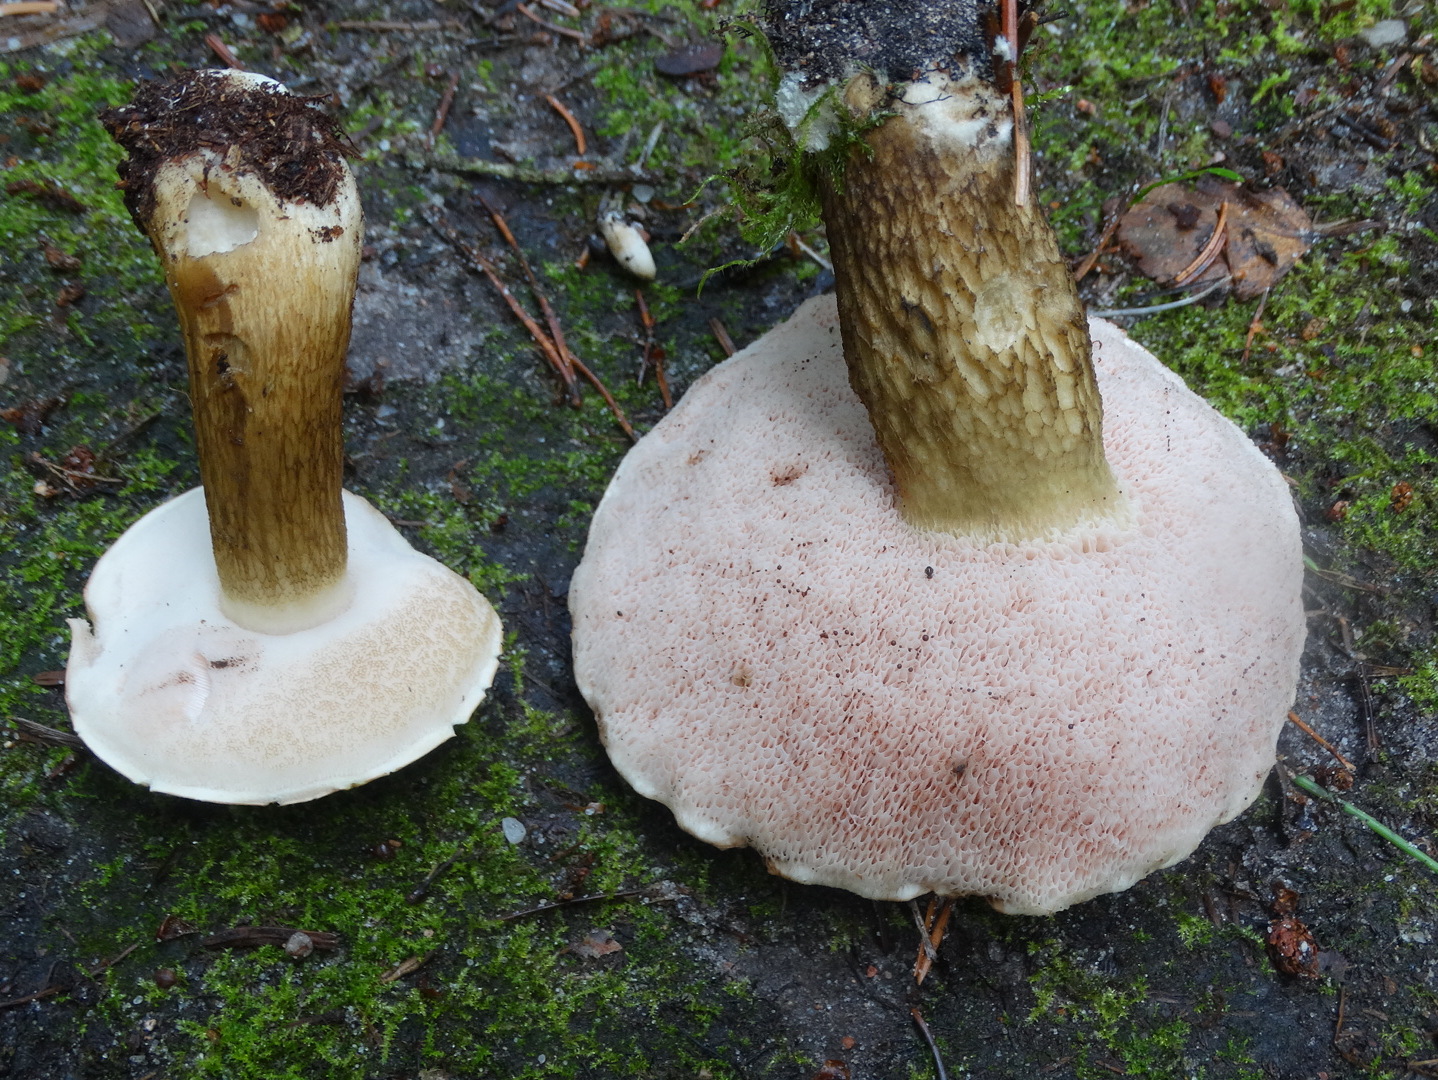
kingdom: Fungi
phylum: Basidiomycota
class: Agaricomycetes
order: Boletales
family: Boletaceae
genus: Tylopilus
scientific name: Tylopilus felleus
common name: galderørhat
